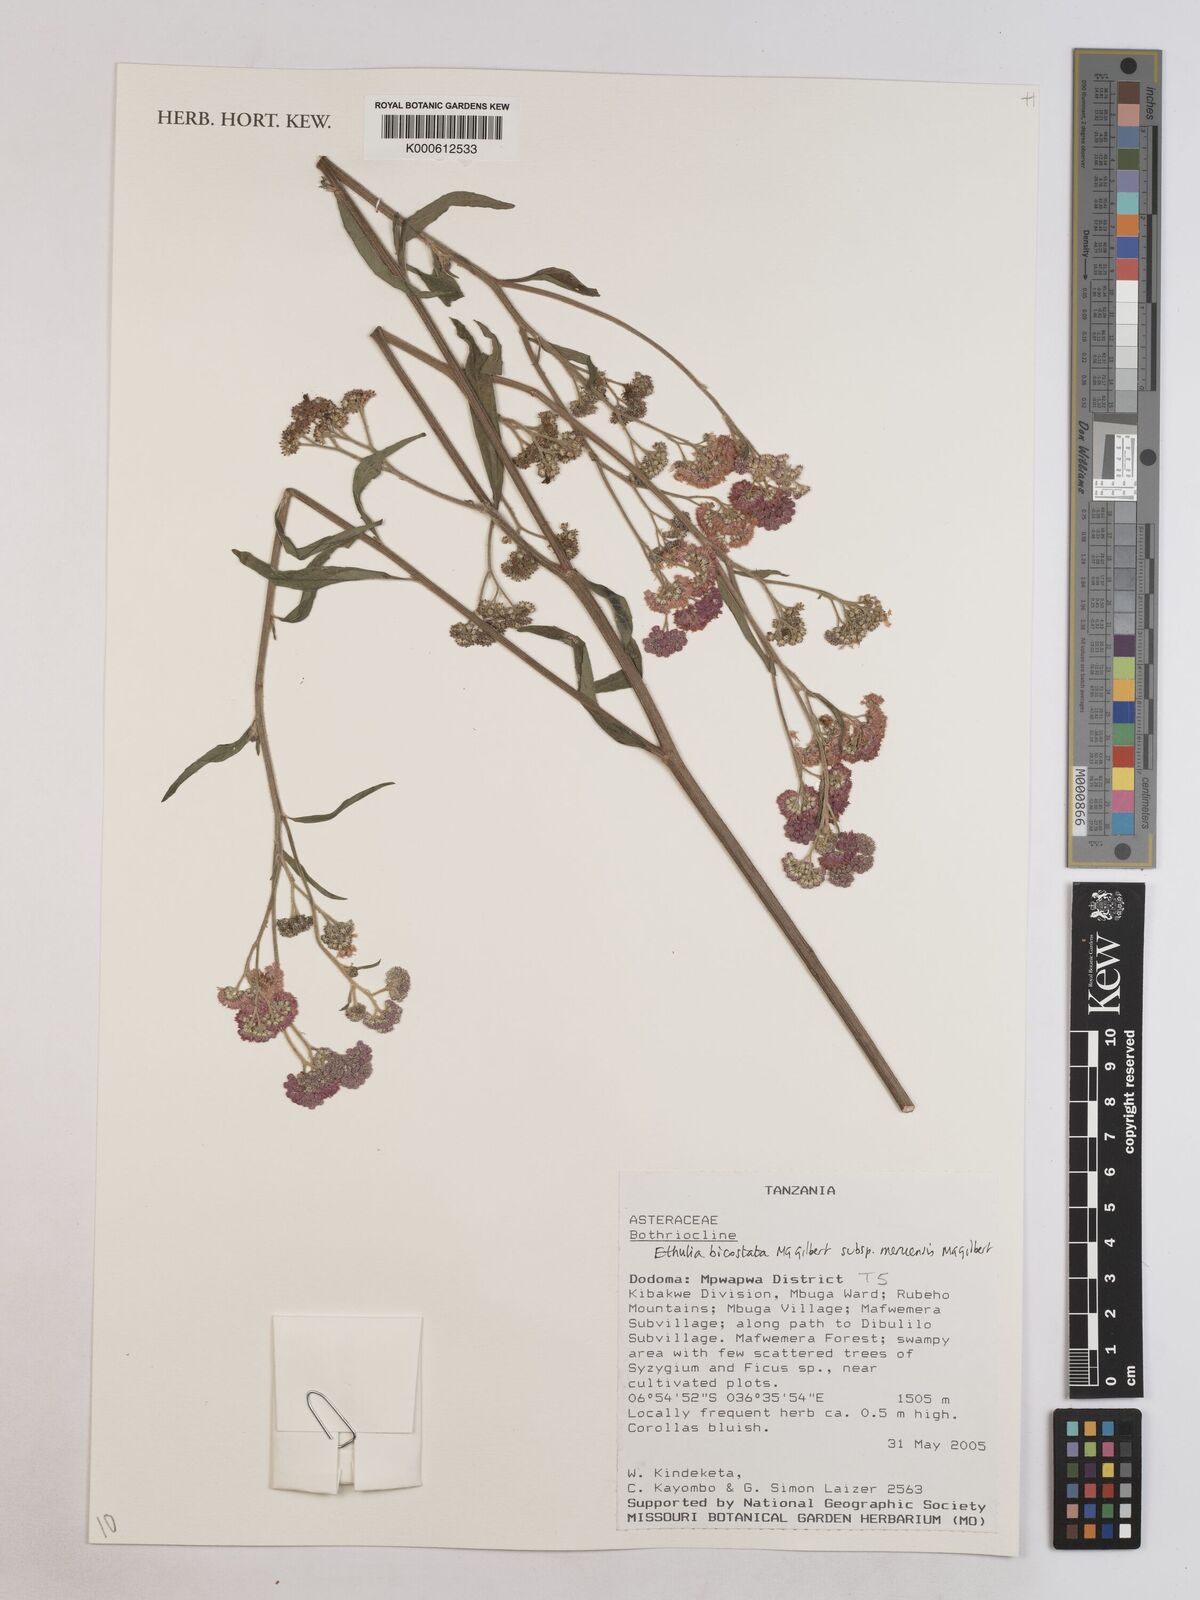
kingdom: Plantae
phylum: Tracheophyta
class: Magnoliopsida
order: Asterales
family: Asteraceae
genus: Ethulia
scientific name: Ethulia bicostata
